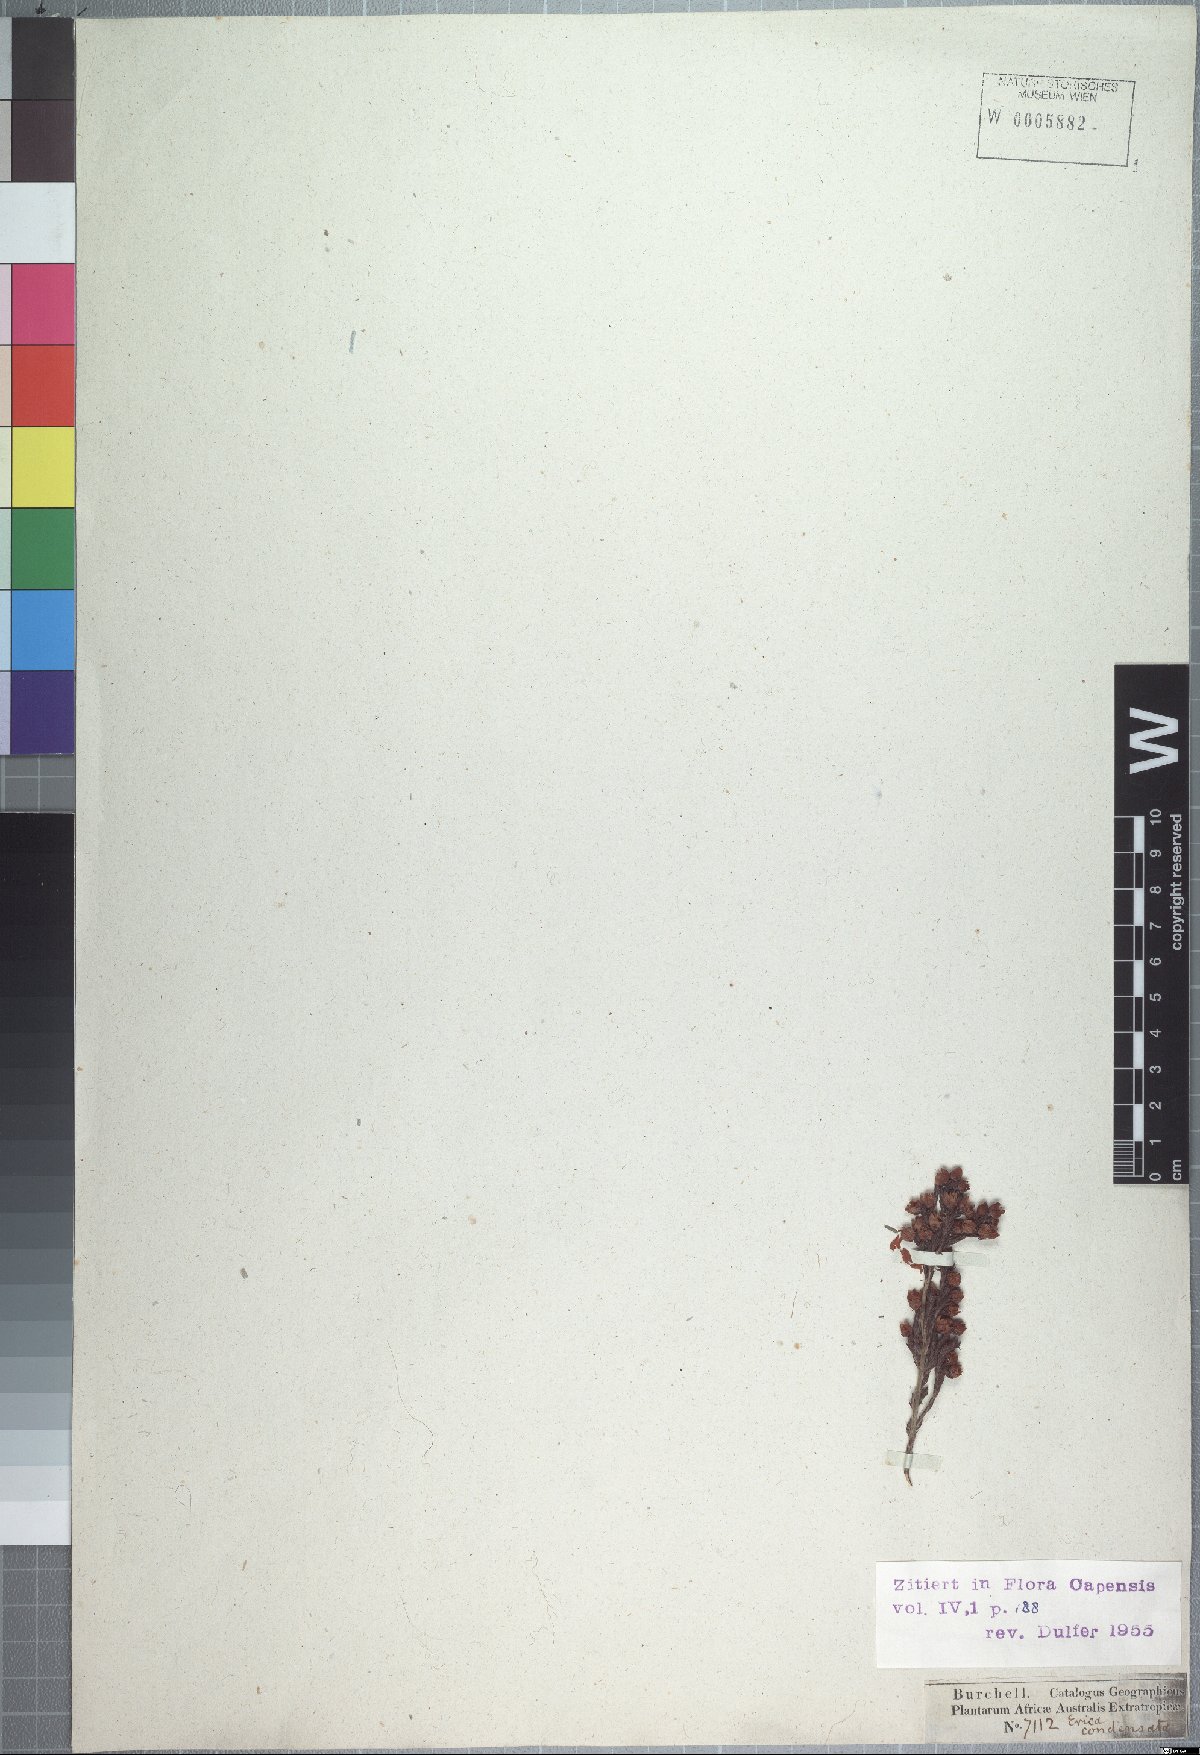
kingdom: Plantae
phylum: Tracheophyta
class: Magnoliopsida
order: Ericales
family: Ericaceae
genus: Erica
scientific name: Erica condensata
